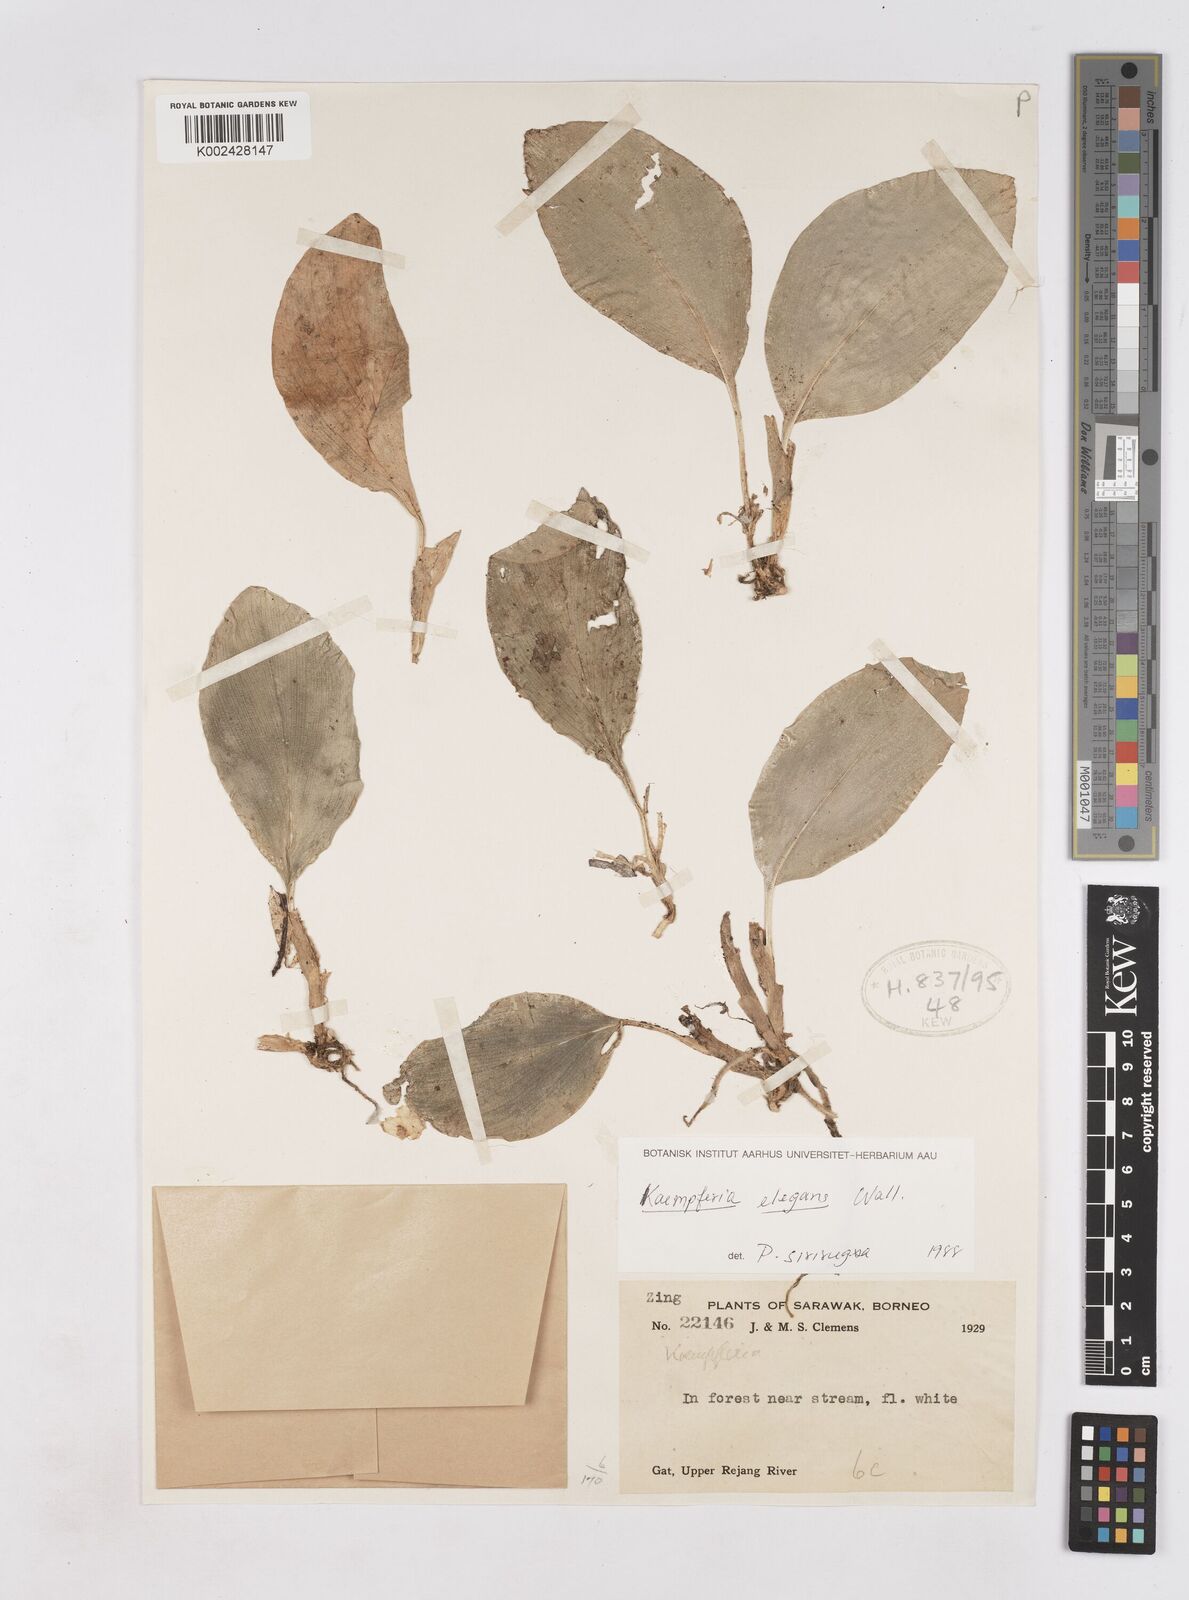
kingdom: Plantae
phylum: Tracheophyta
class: Liliopsida
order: Zingiberales
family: Zingiberaceae
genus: Kaempferia
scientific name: Kaempferia elegans
